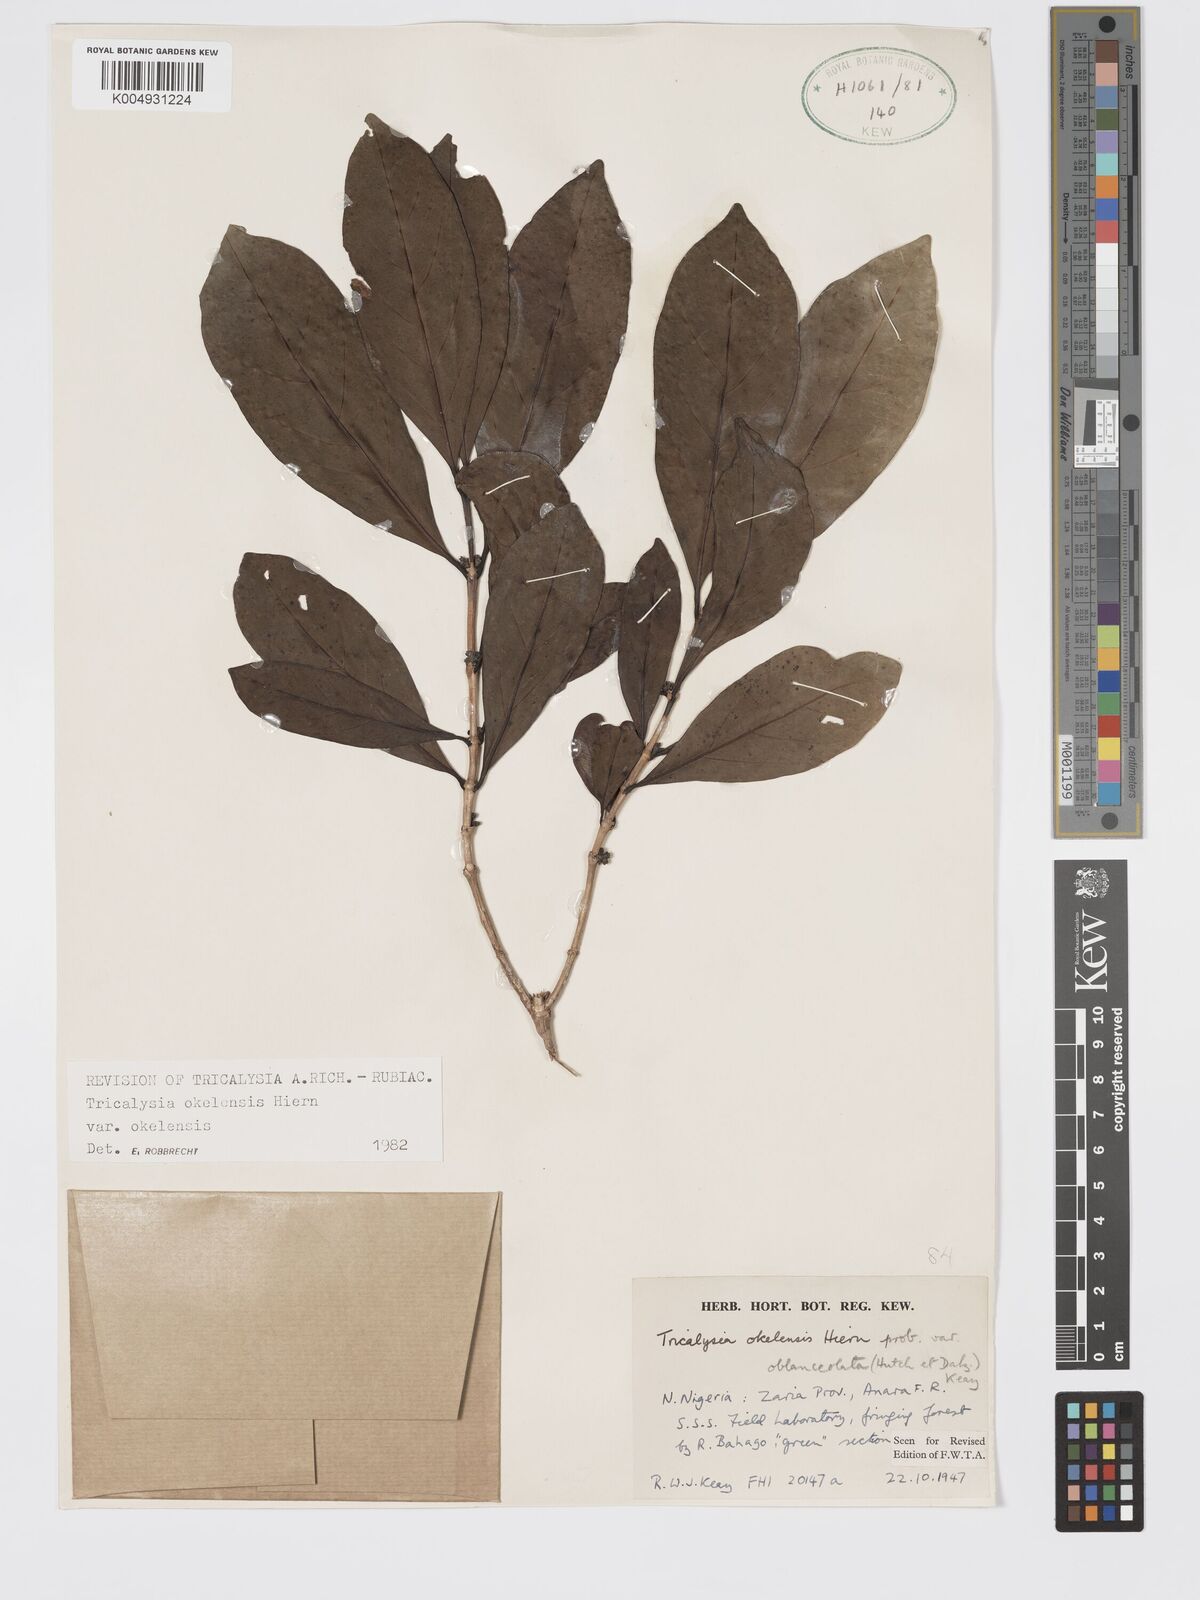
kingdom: Plantae
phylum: Tracheophyta
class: Magnoliopsida
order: Gentianales
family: Rubiaceae
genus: Tricalysia
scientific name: Tricalysia okelensis
